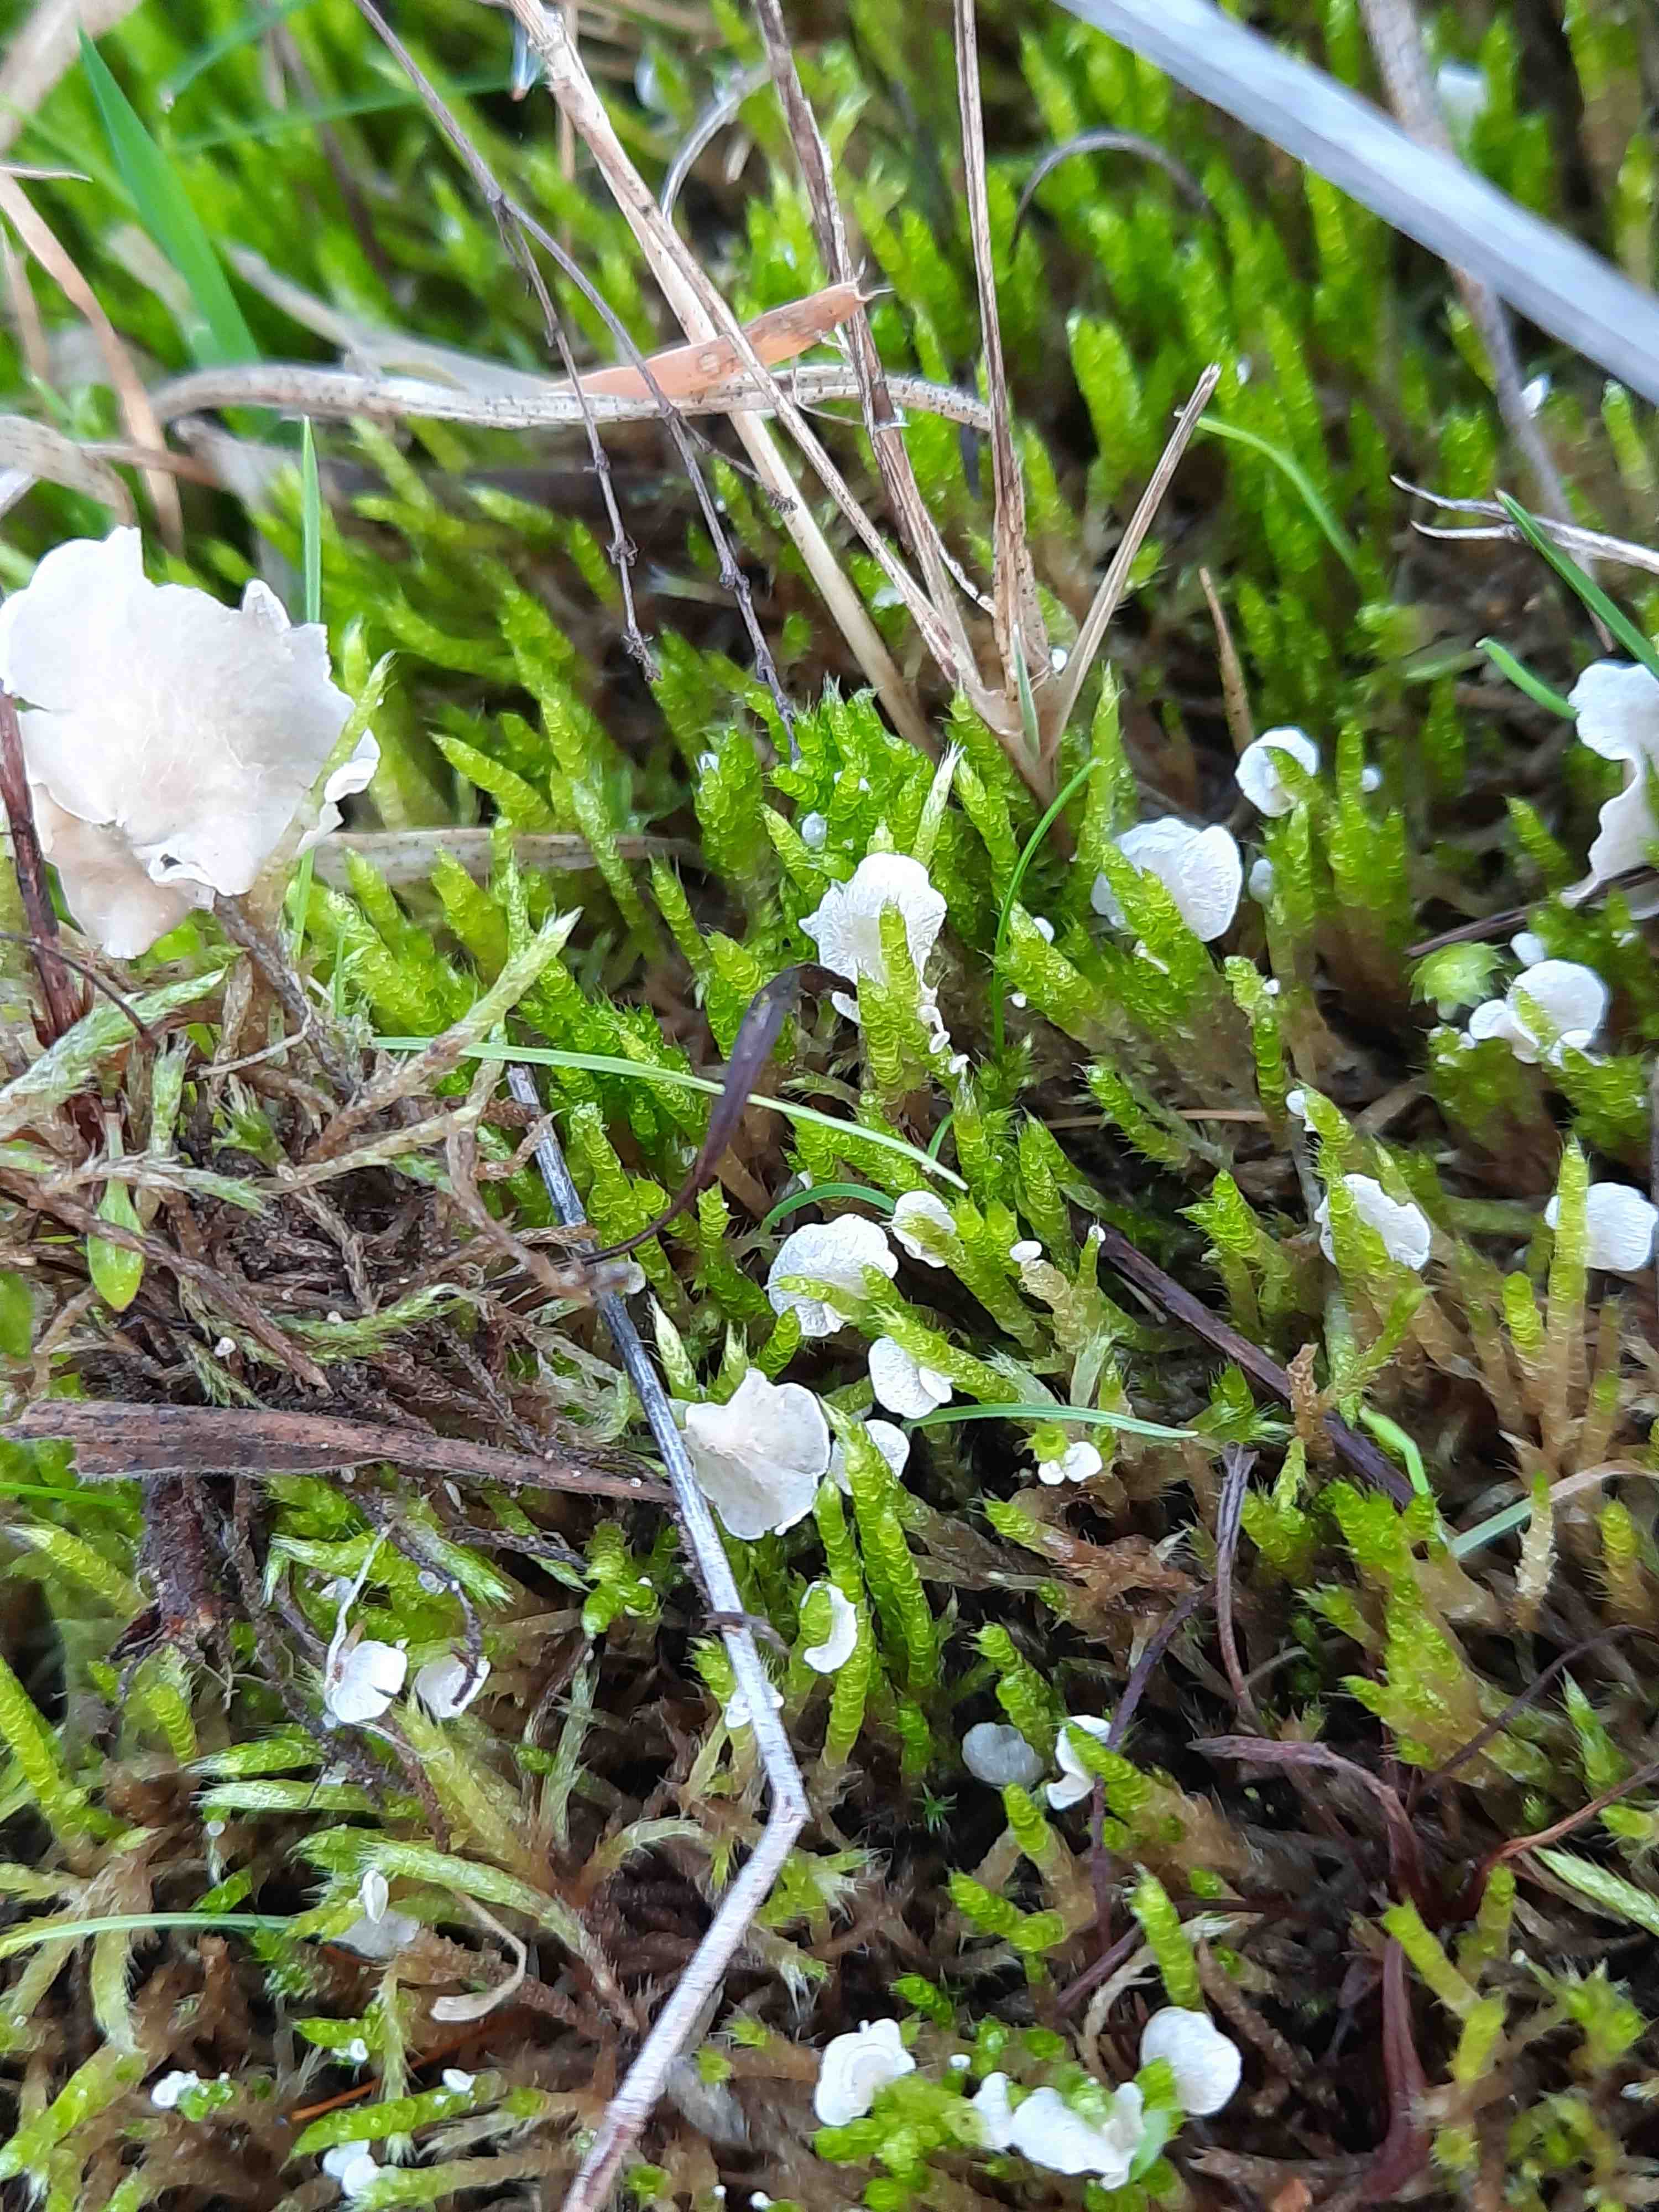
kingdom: Fungi
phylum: Basidiomycota
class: Agaricomycetes
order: Agaricales
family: Hygrophoraceae
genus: Arrhenia
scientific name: Arrhenia retiruga
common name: lille fontænehat
